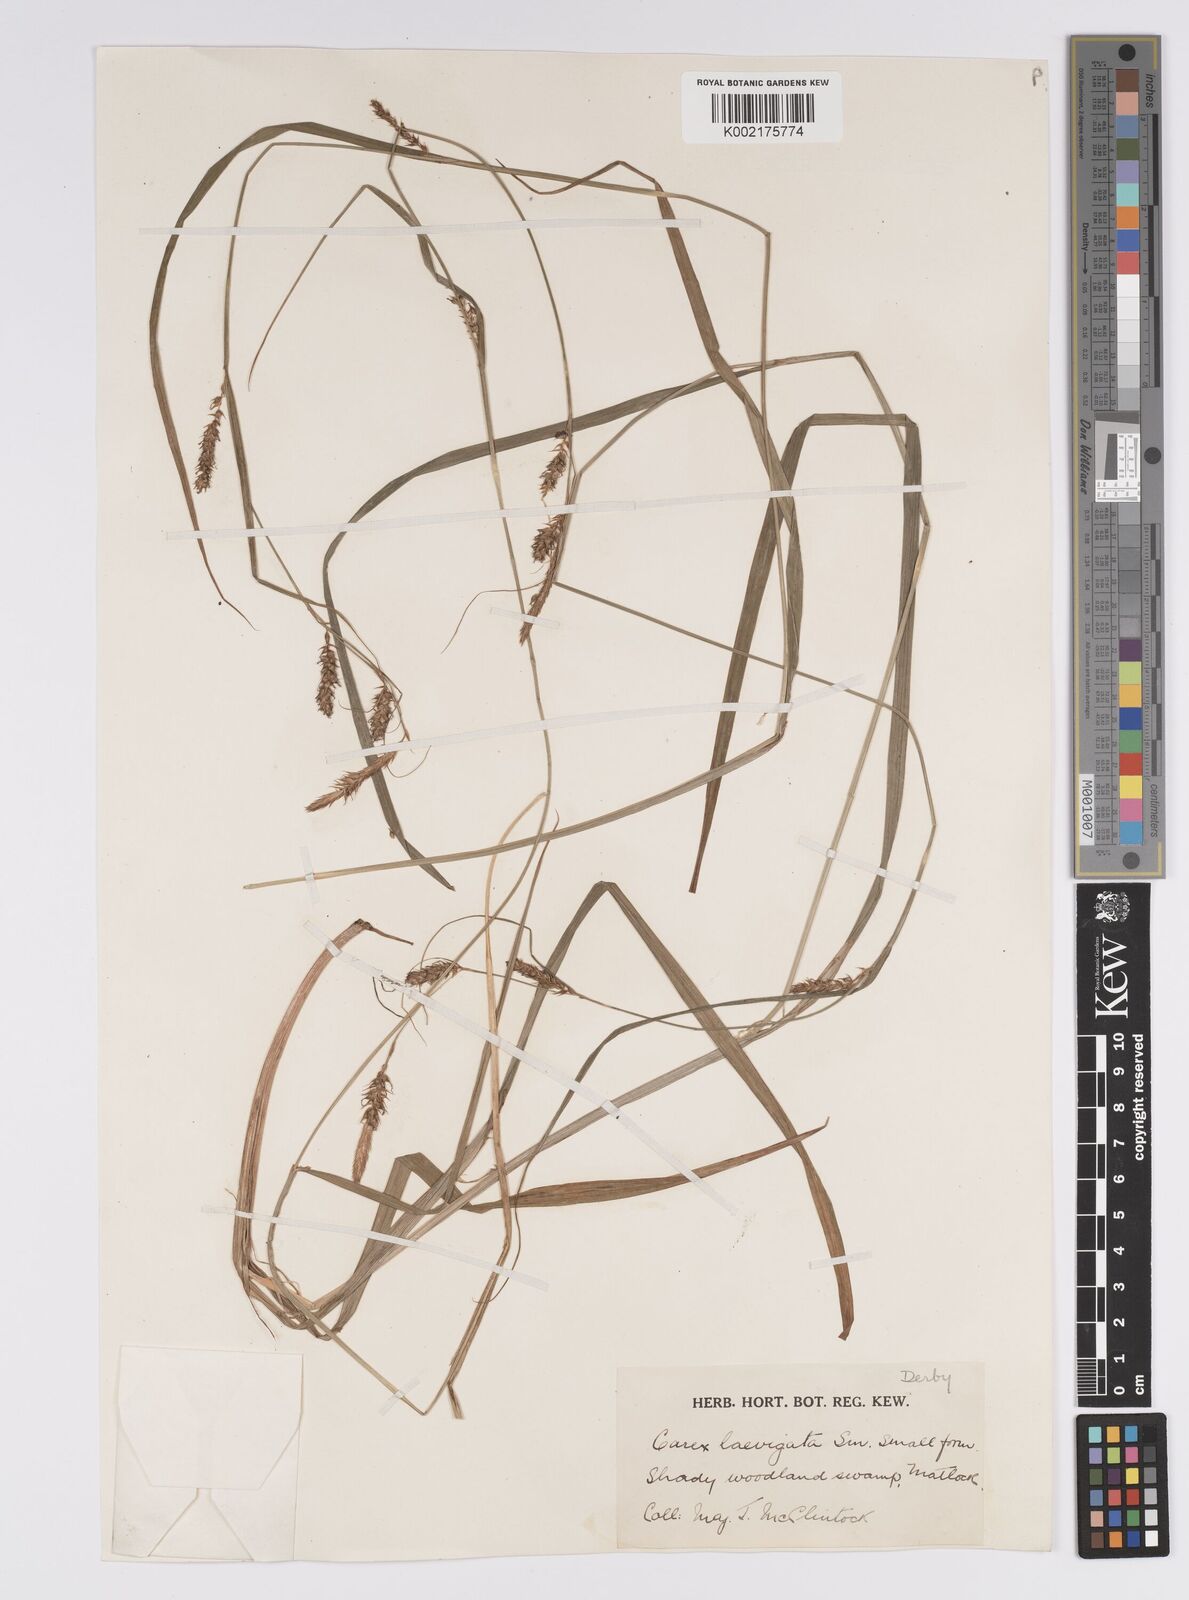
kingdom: Plantae
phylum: Tracheophyta
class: Liliopsida
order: Poales
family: Cyperaceae
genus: Carex
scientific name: Carex laevigata
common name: Smooth-stalked sedge
